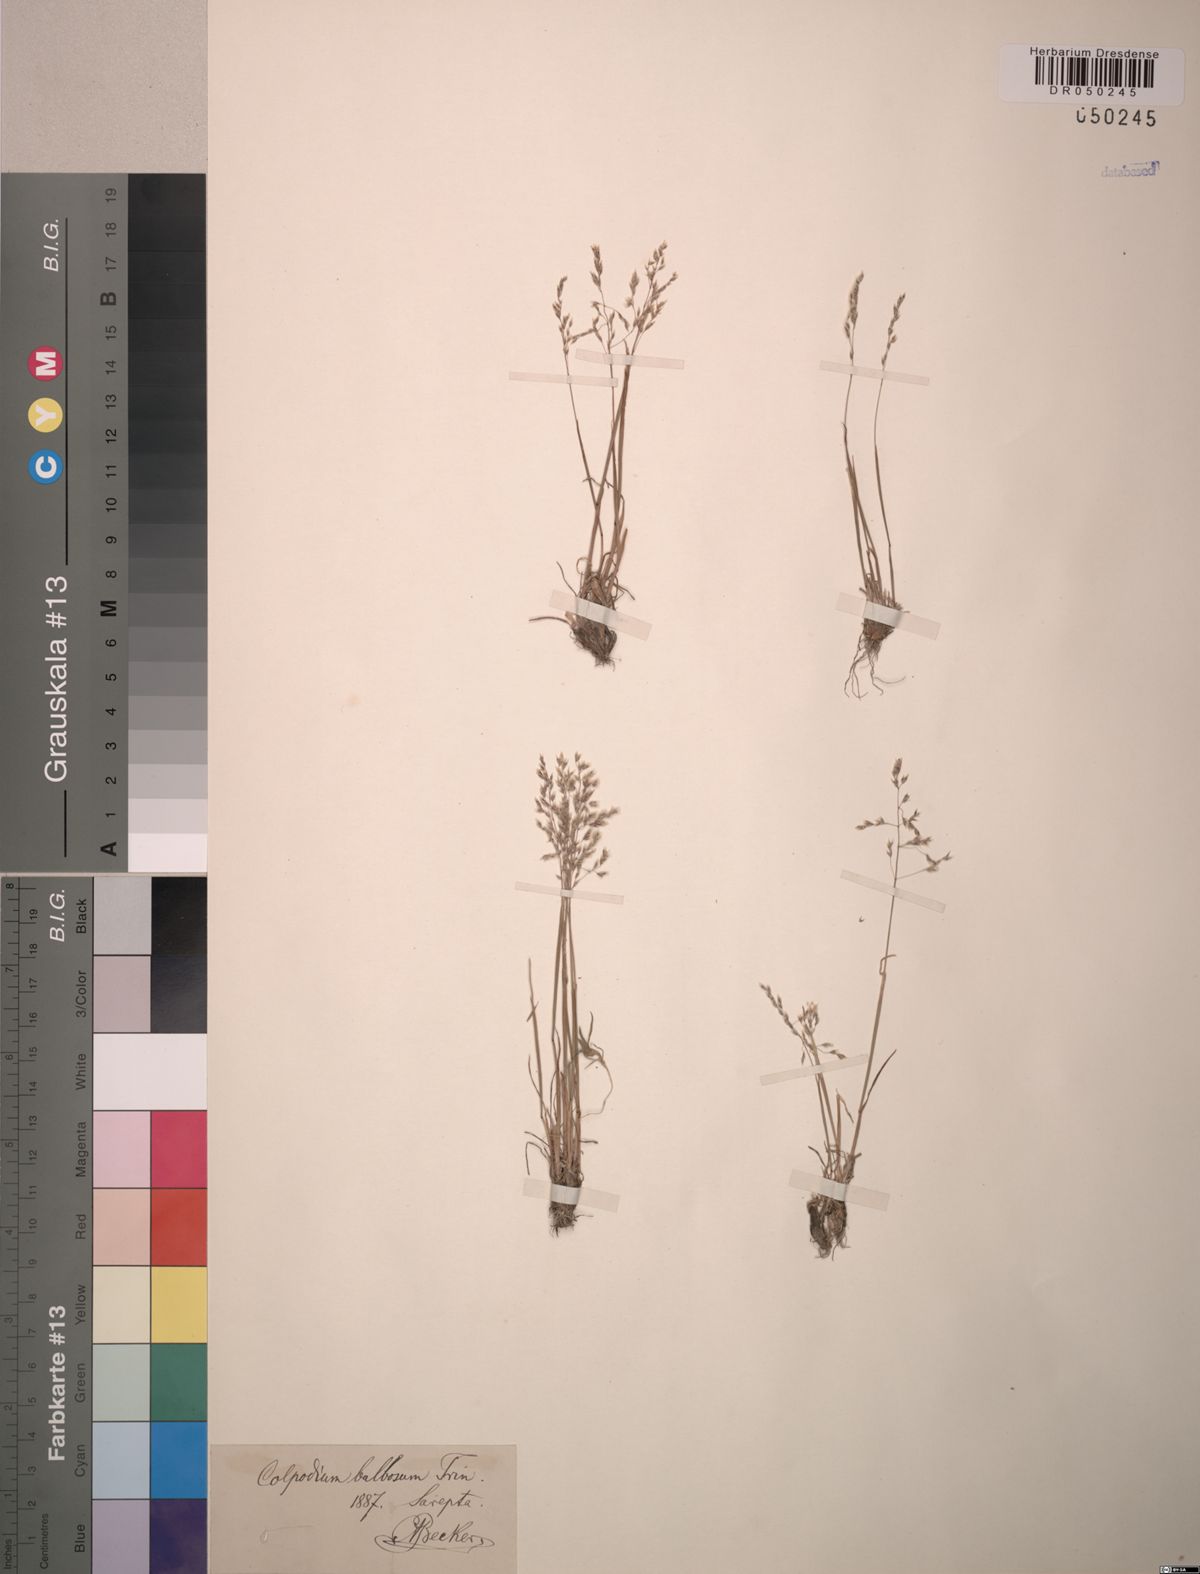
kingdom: Plantae
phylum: Tracheophyta
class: Liliopsida
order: Poales
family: Poaceae
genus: Catabrosella
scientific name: Catabrosella humilis
